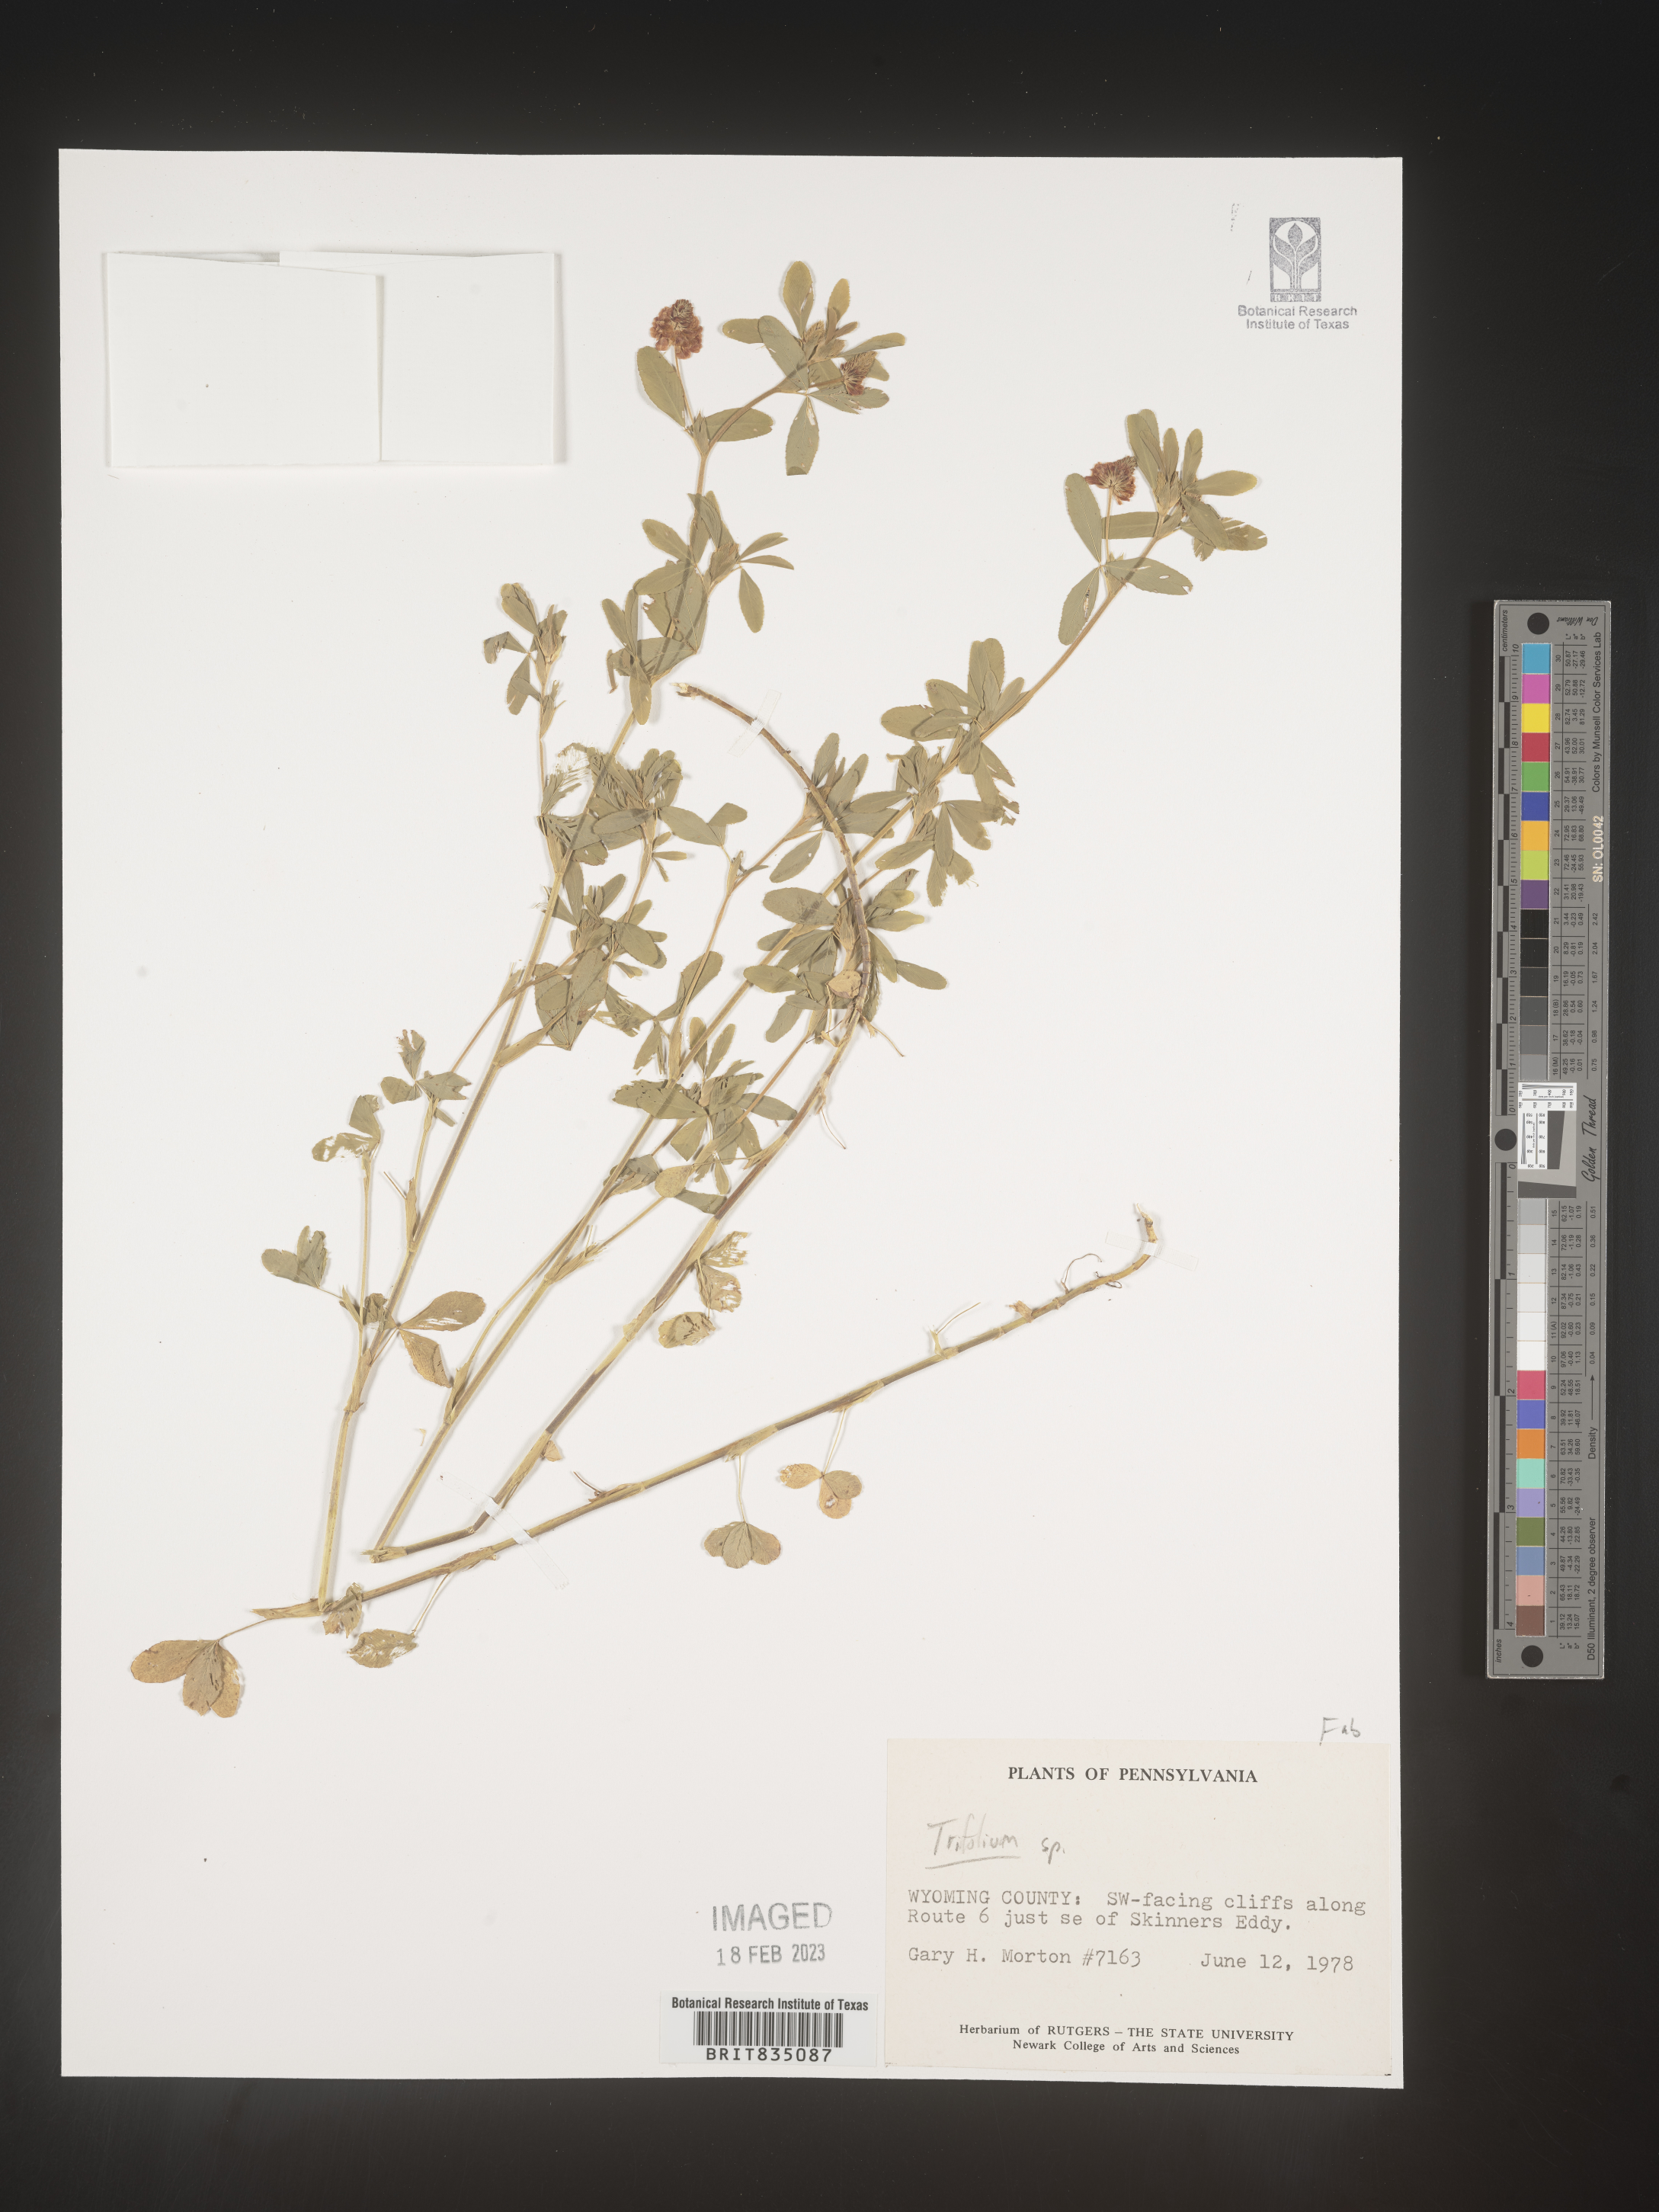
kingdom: Plantae
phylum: Tracheophyta
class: Magnoliopsida
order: Fabales
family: Fabaceae
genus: Trifolium
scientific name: Trifolium
